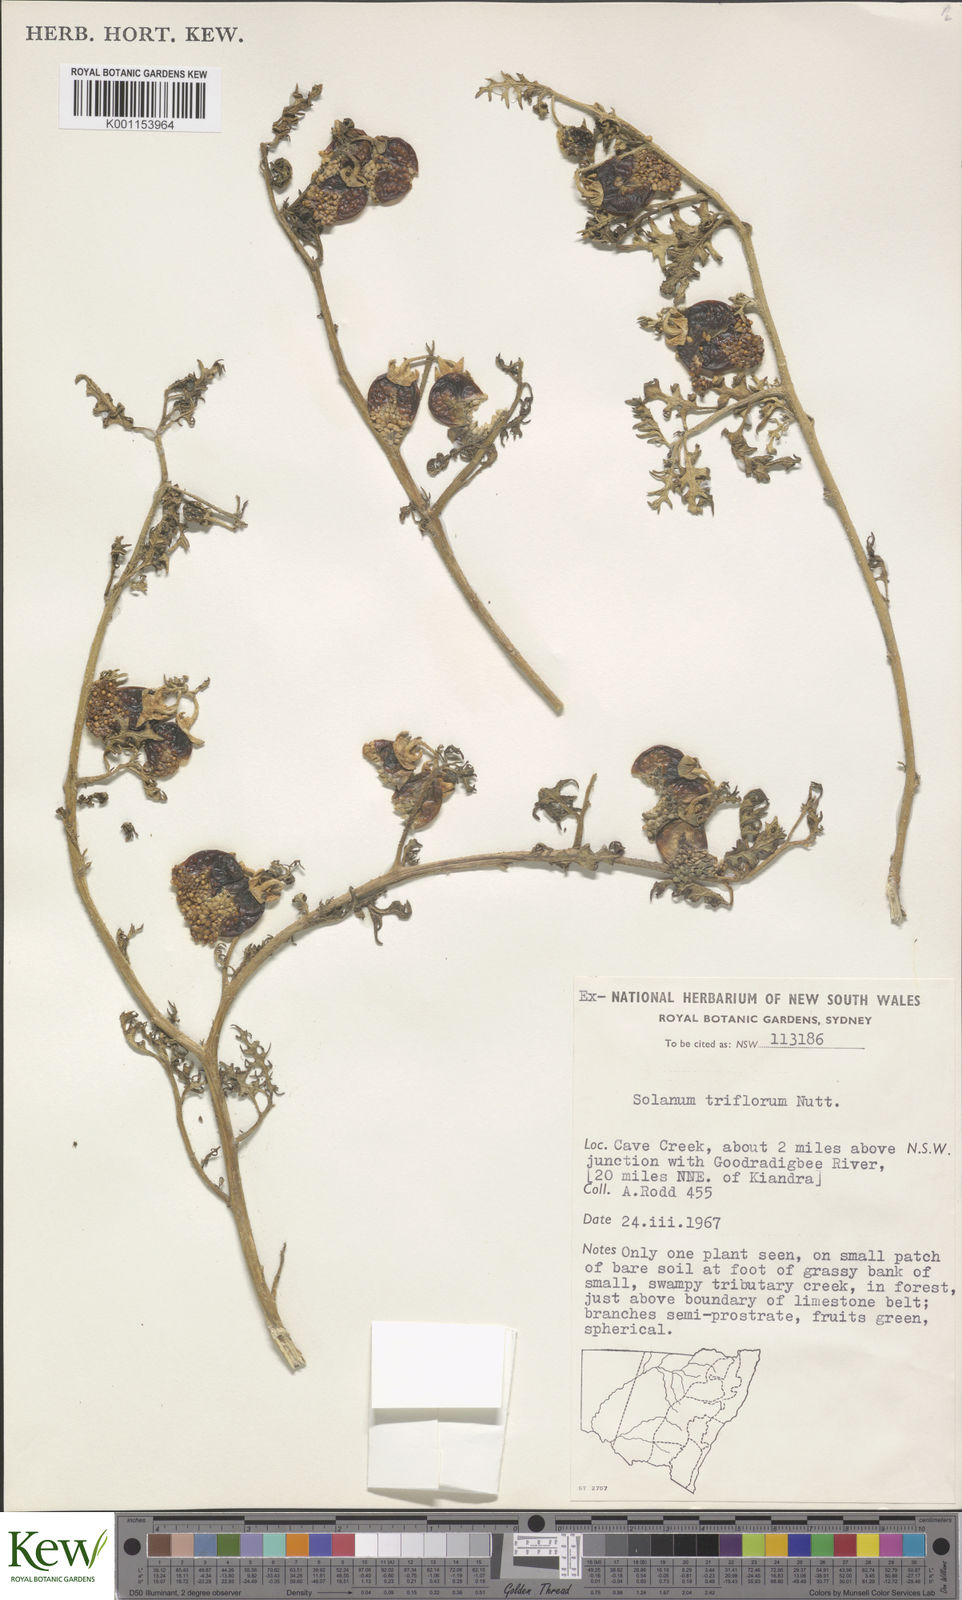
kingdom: Plantae
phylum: Tracheophyta
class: Magnoliopsida
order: Solanales
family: Solanaceae
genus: Solanum
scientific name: Solanum triflorum
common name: Small nightshade
